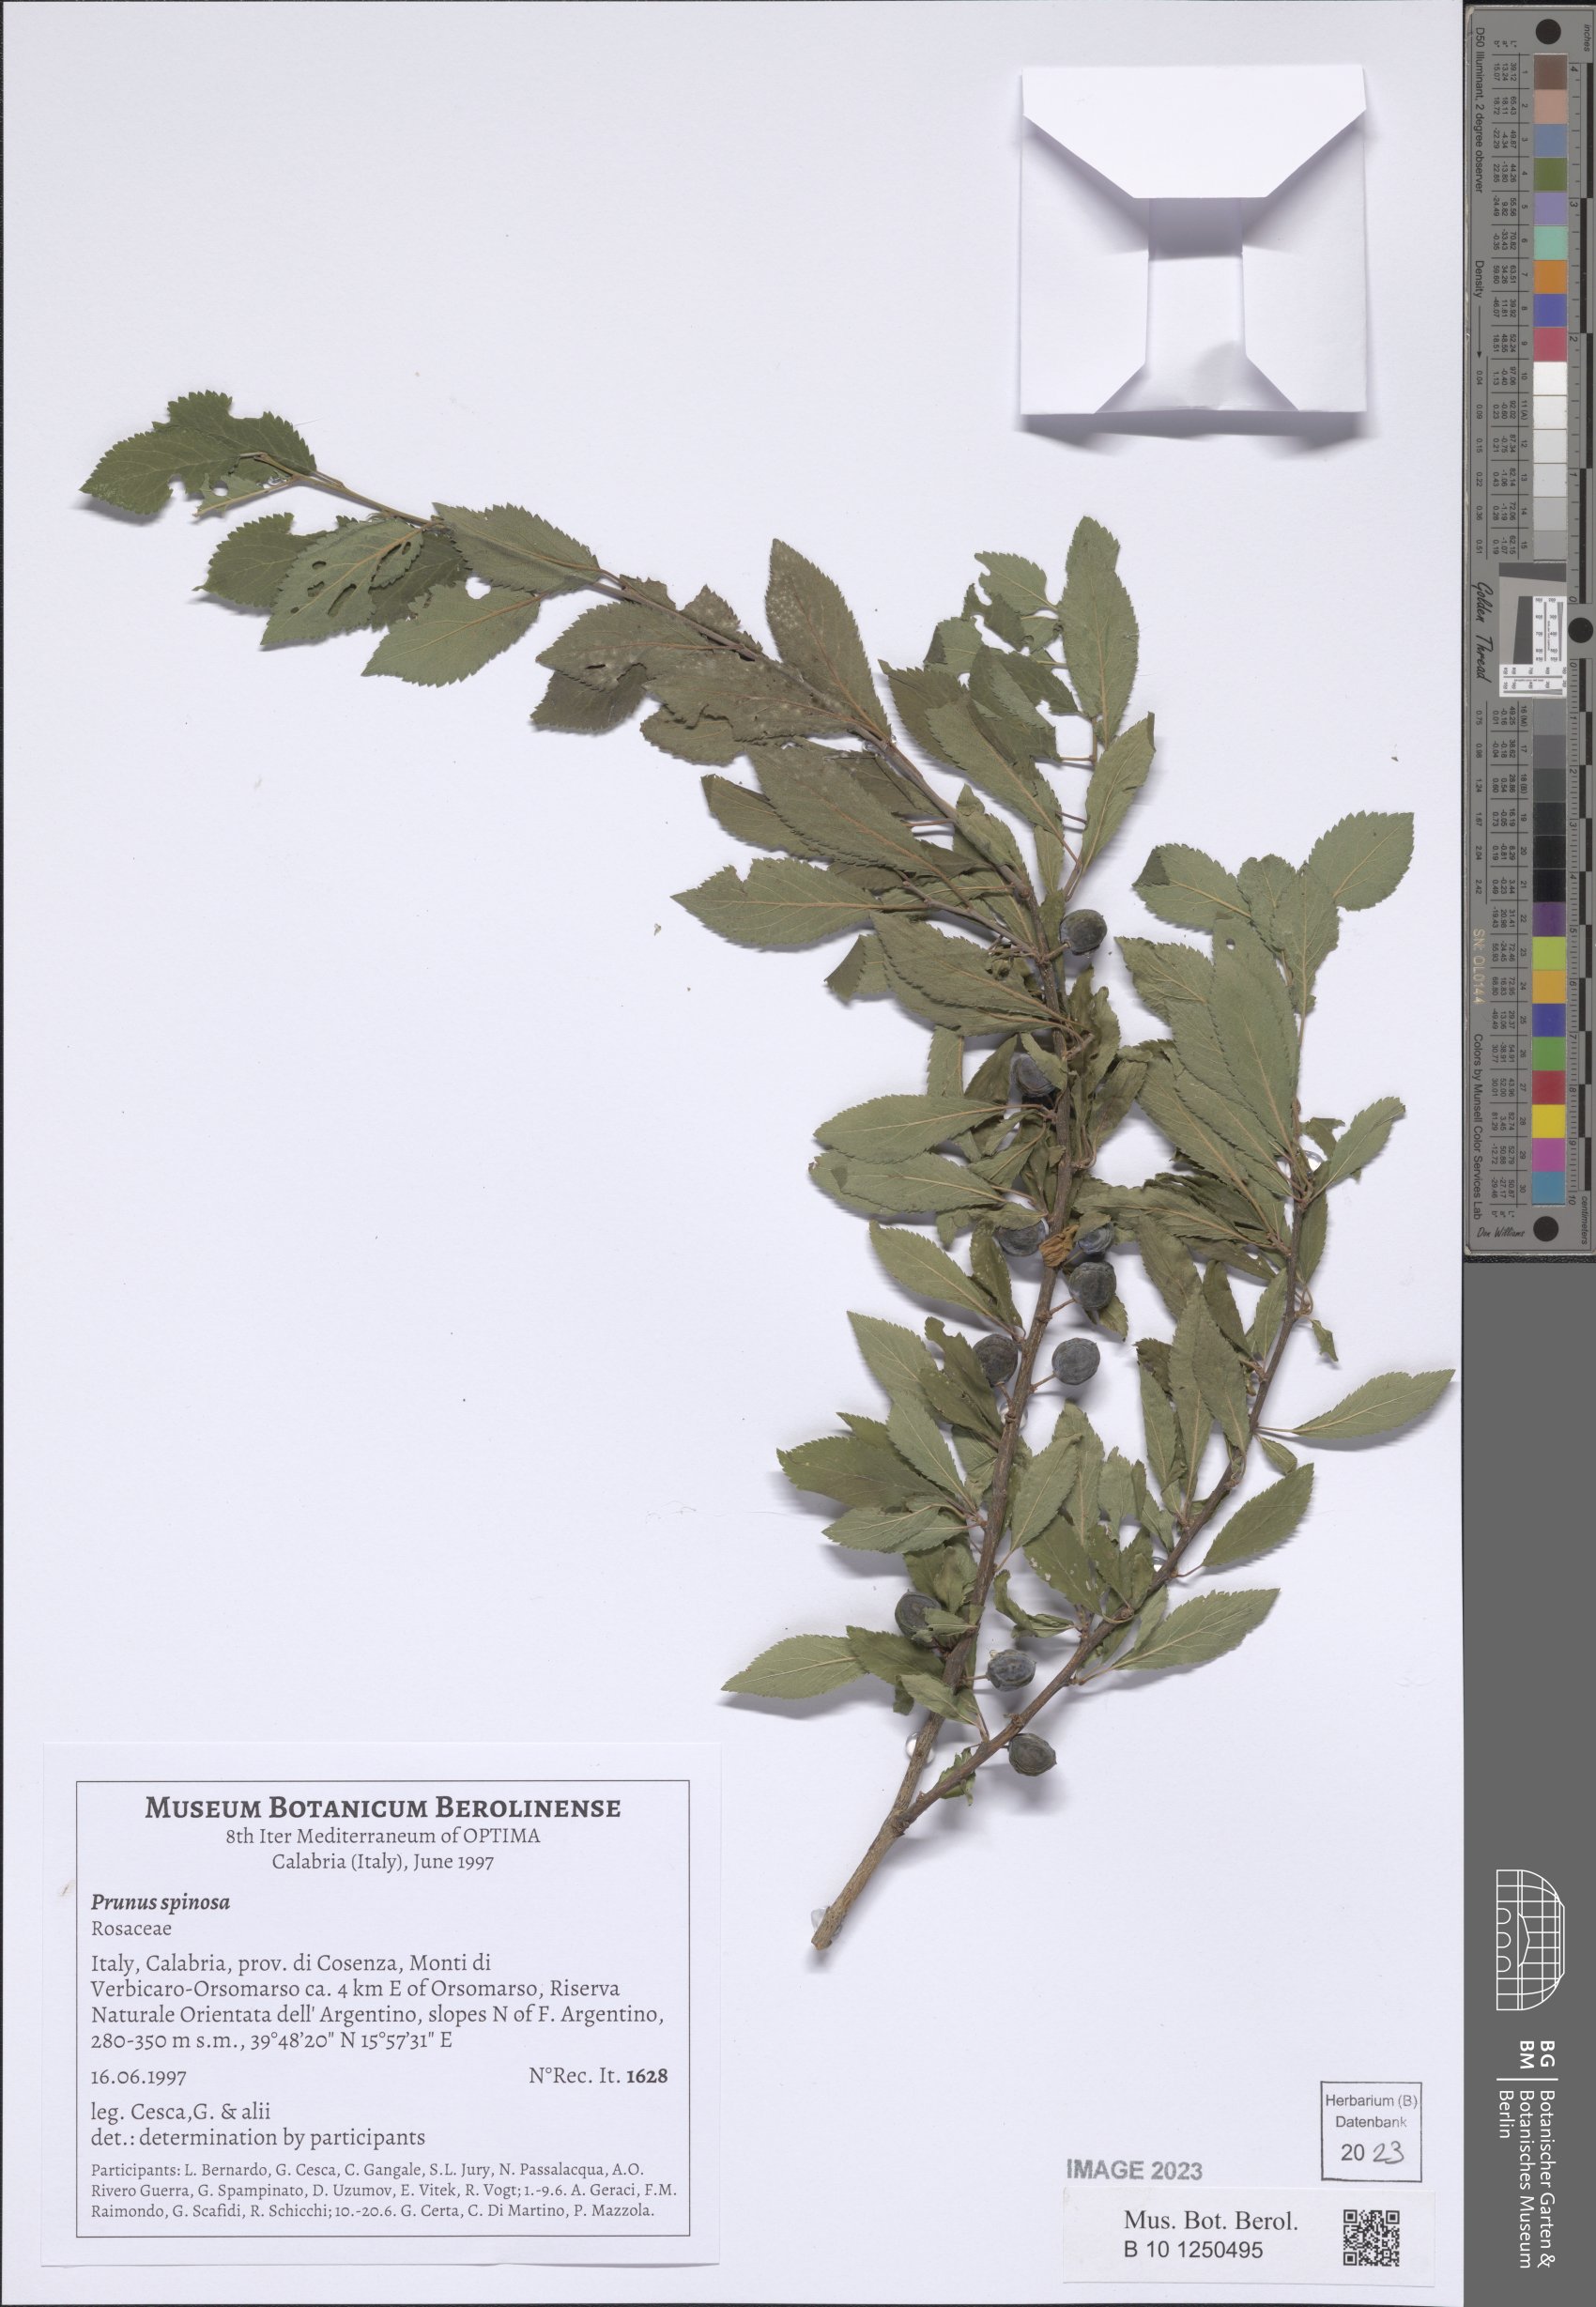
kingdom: Plantae
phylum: Tracheophyta
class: Magnoliopsida
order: Rosales
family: Rosaceae
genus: Prunus
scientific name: Prunus spinosa
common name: Blackthorn
